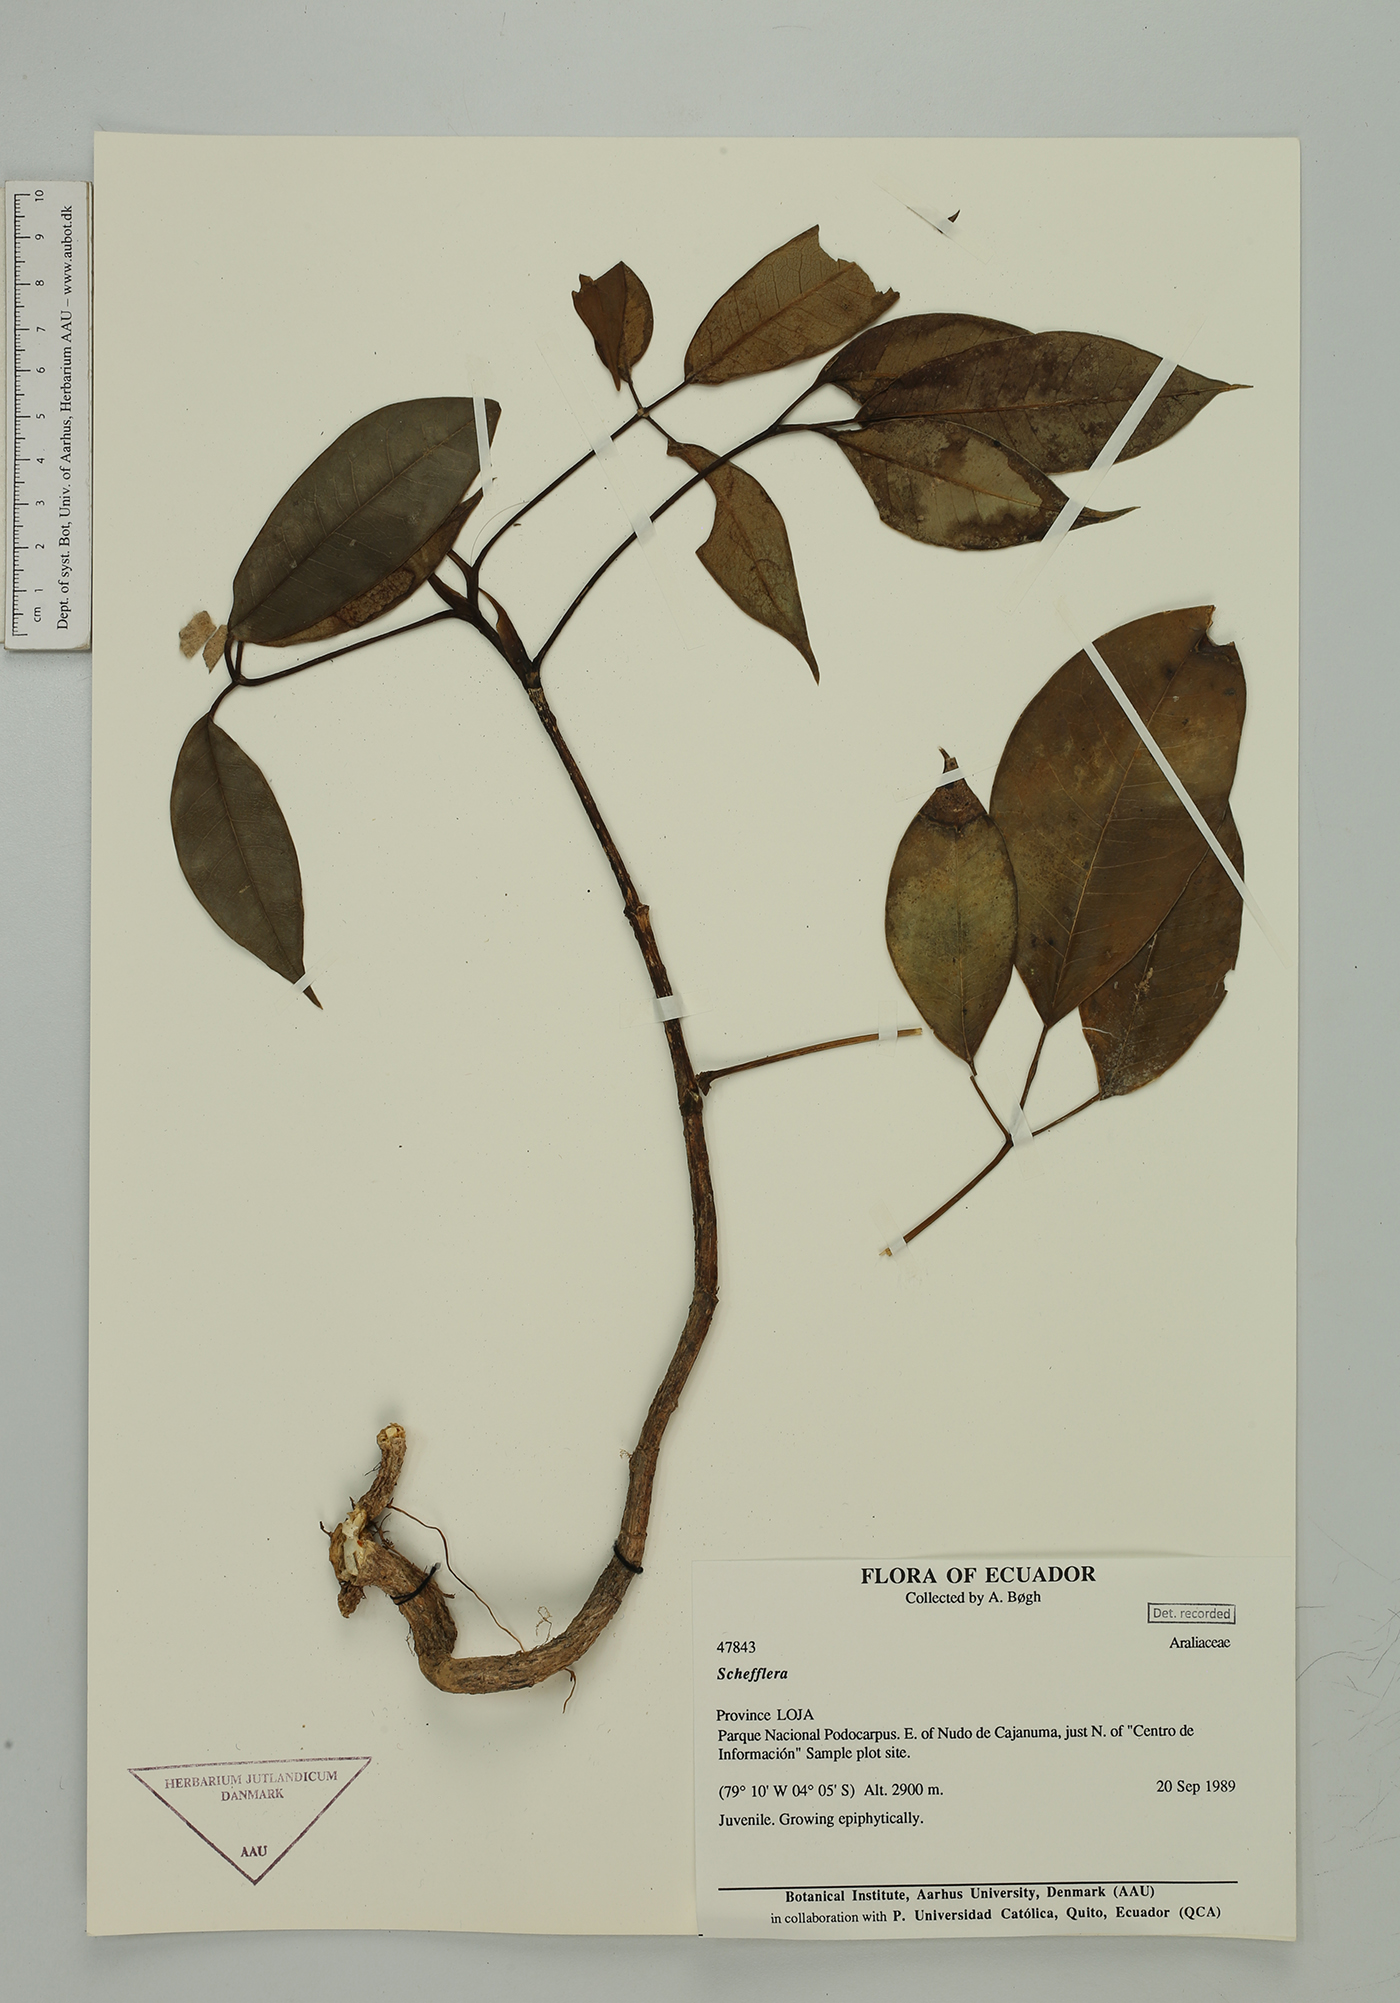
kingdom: Plantae
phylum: Tracheophyta
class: Magnoliopsida
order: Apiales
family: Araliaceae
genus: Sciodaphyllum
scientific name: Sciodaphyllum
